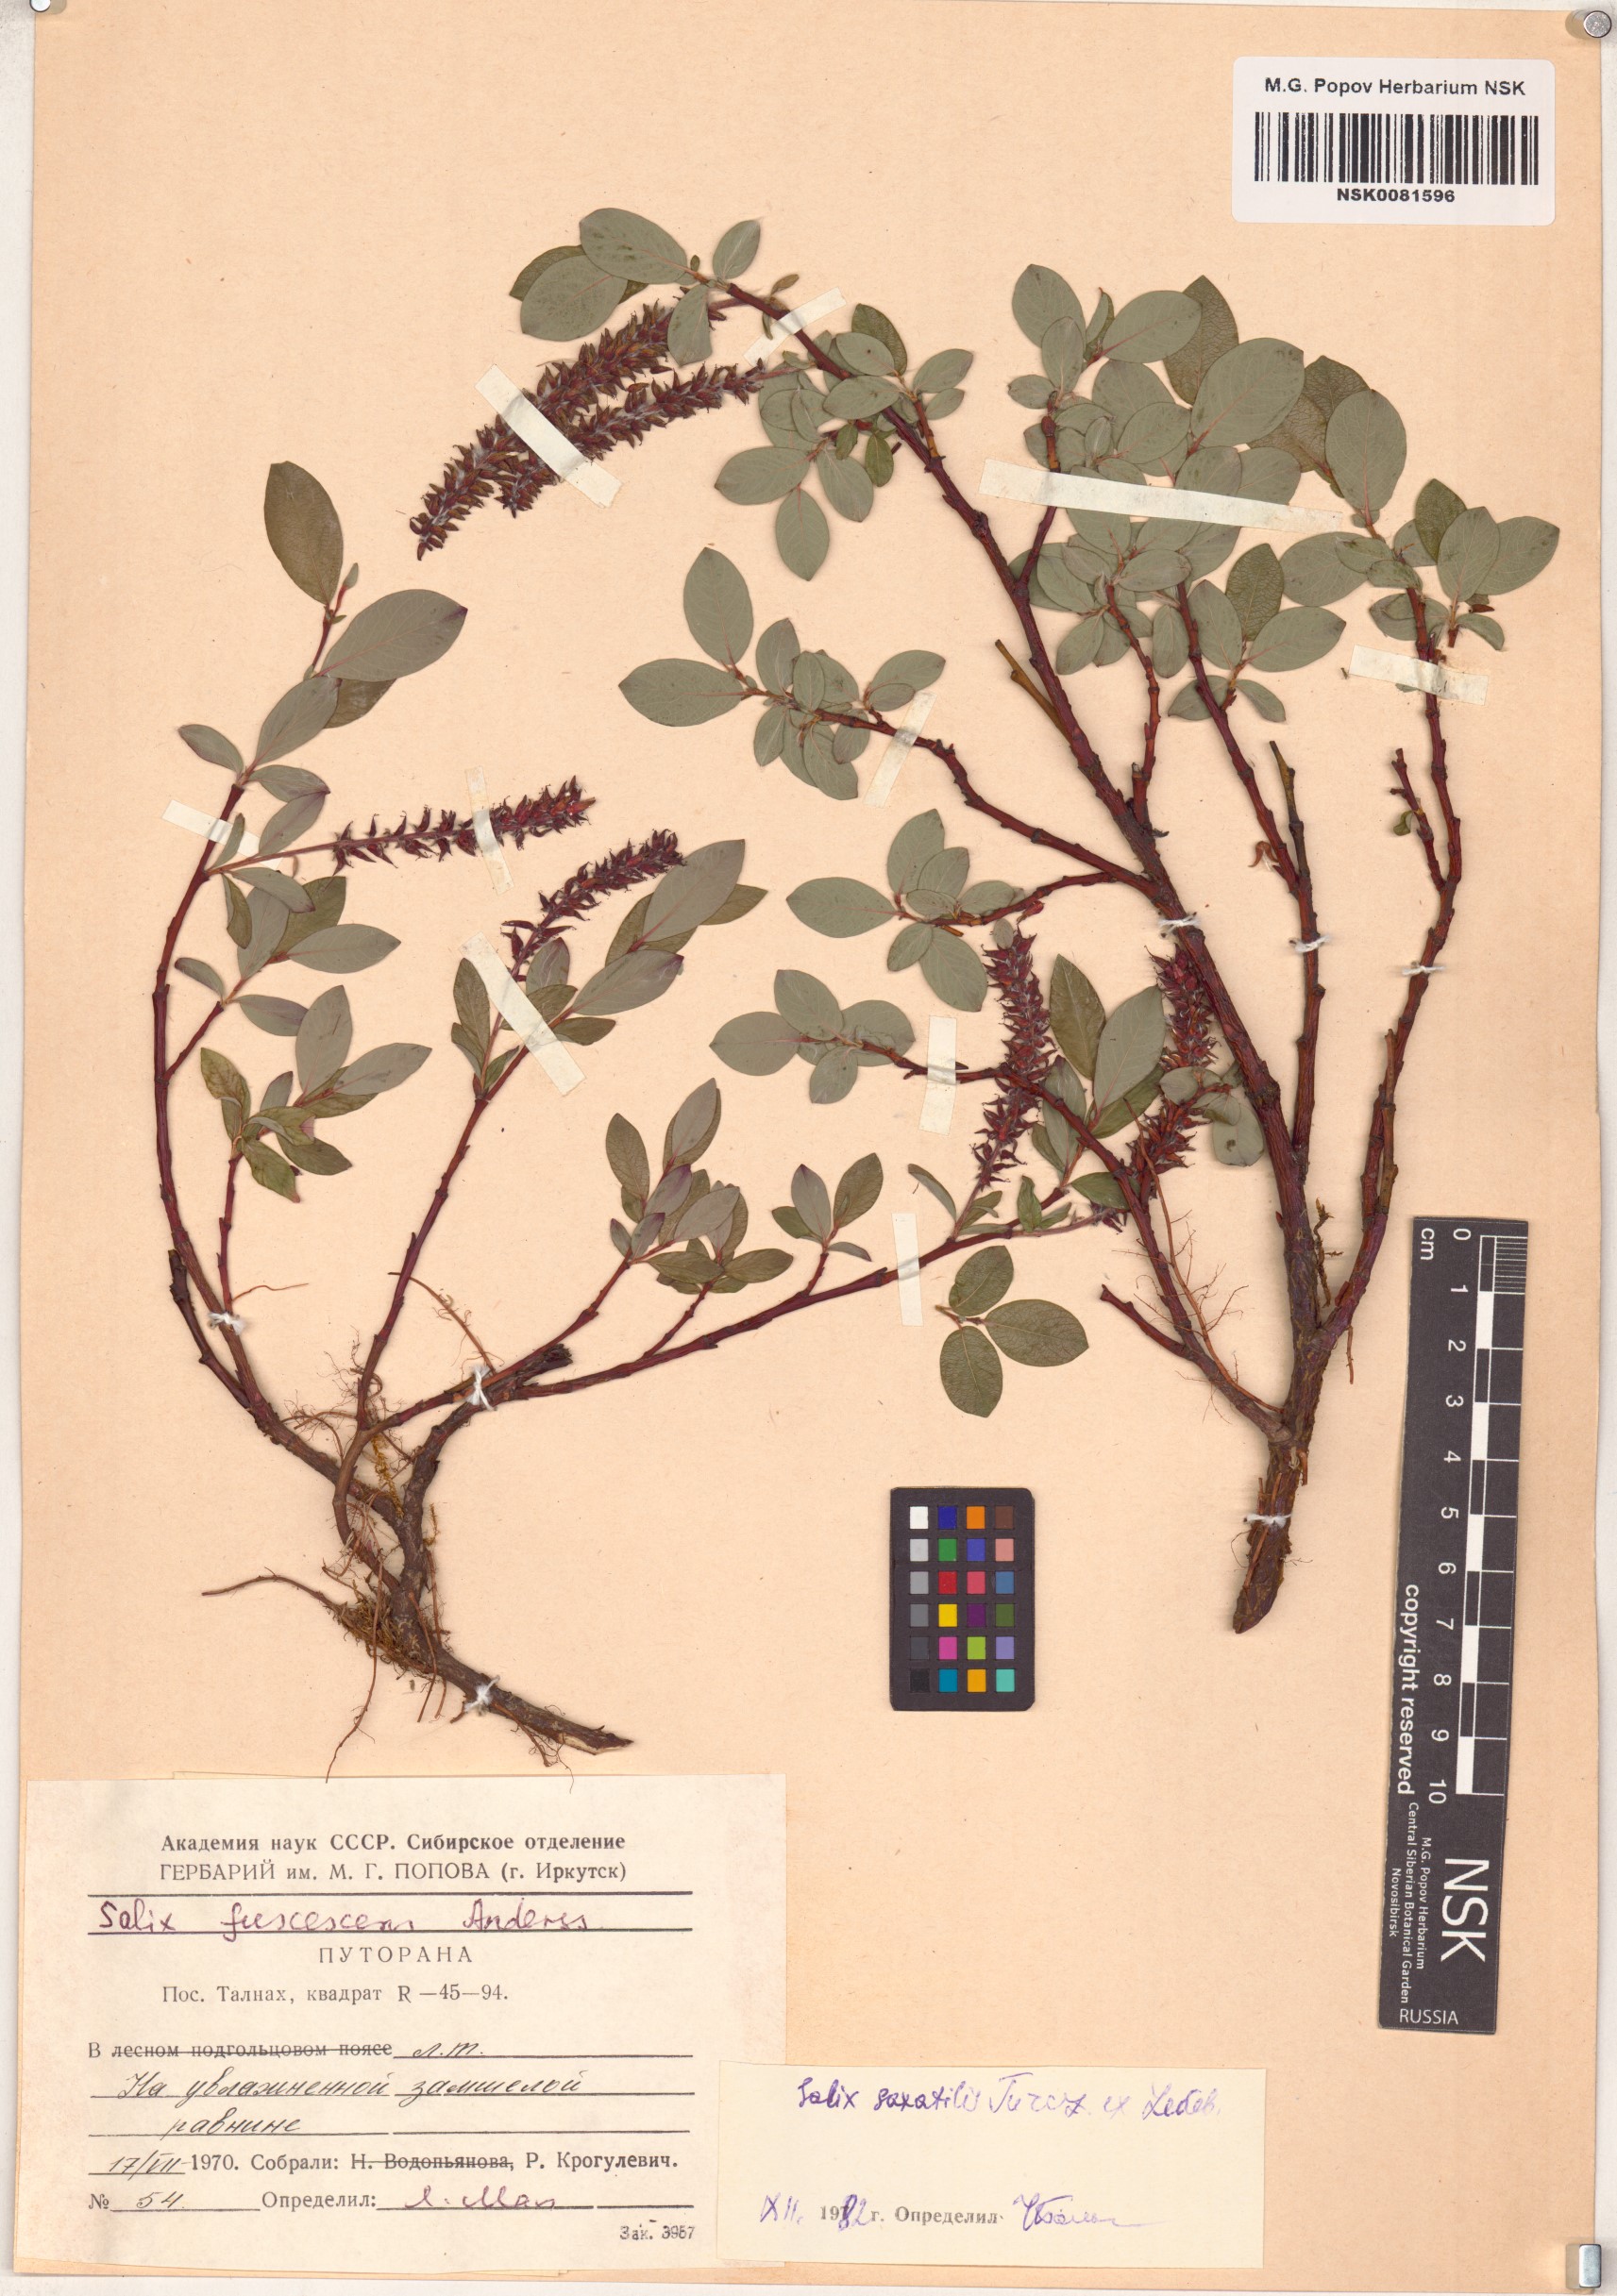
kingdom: Plantae
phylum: Tracheophyta
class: Magnoliopsida
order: Malpighiales
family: Salicaceae
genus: Salix
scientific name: Salix saxatilis
